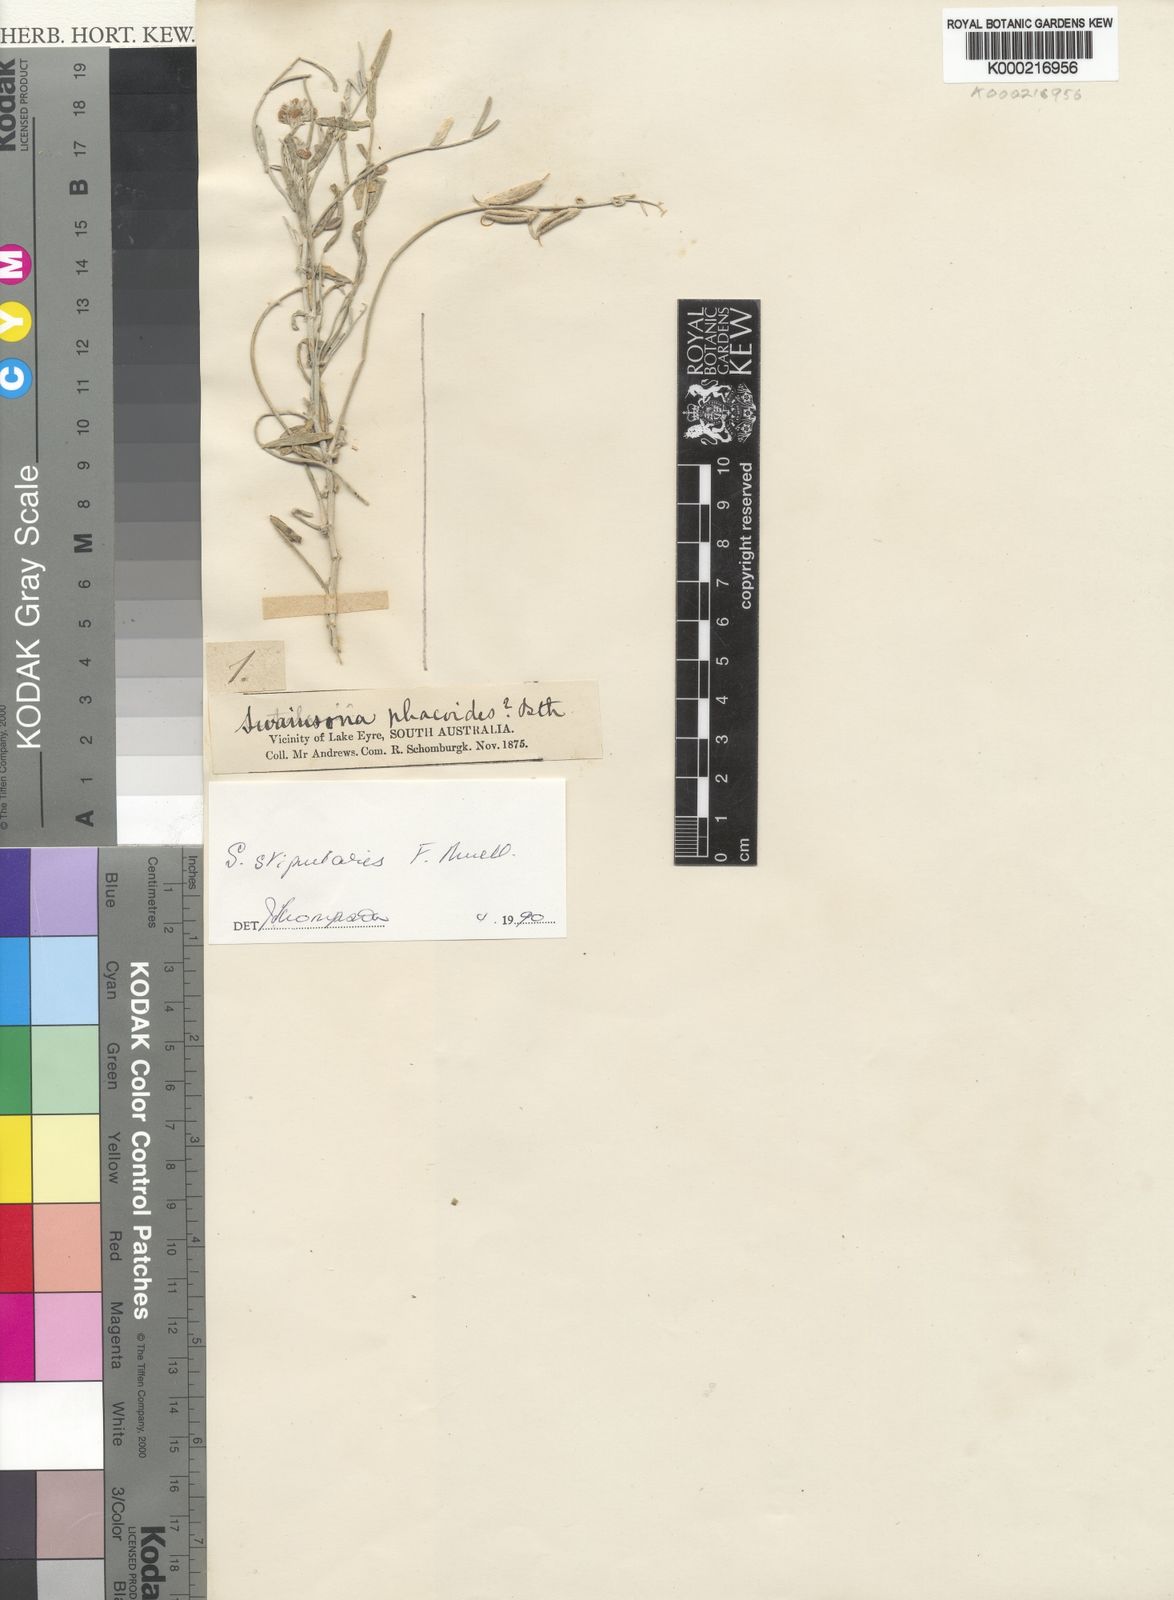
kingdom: Plantae
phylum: Tracheophyta
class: Magnoliopsida
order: Fabales
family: Fabaceae
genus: Swainsona
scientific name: Swainsona stipularis
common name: Orange darling-pea
